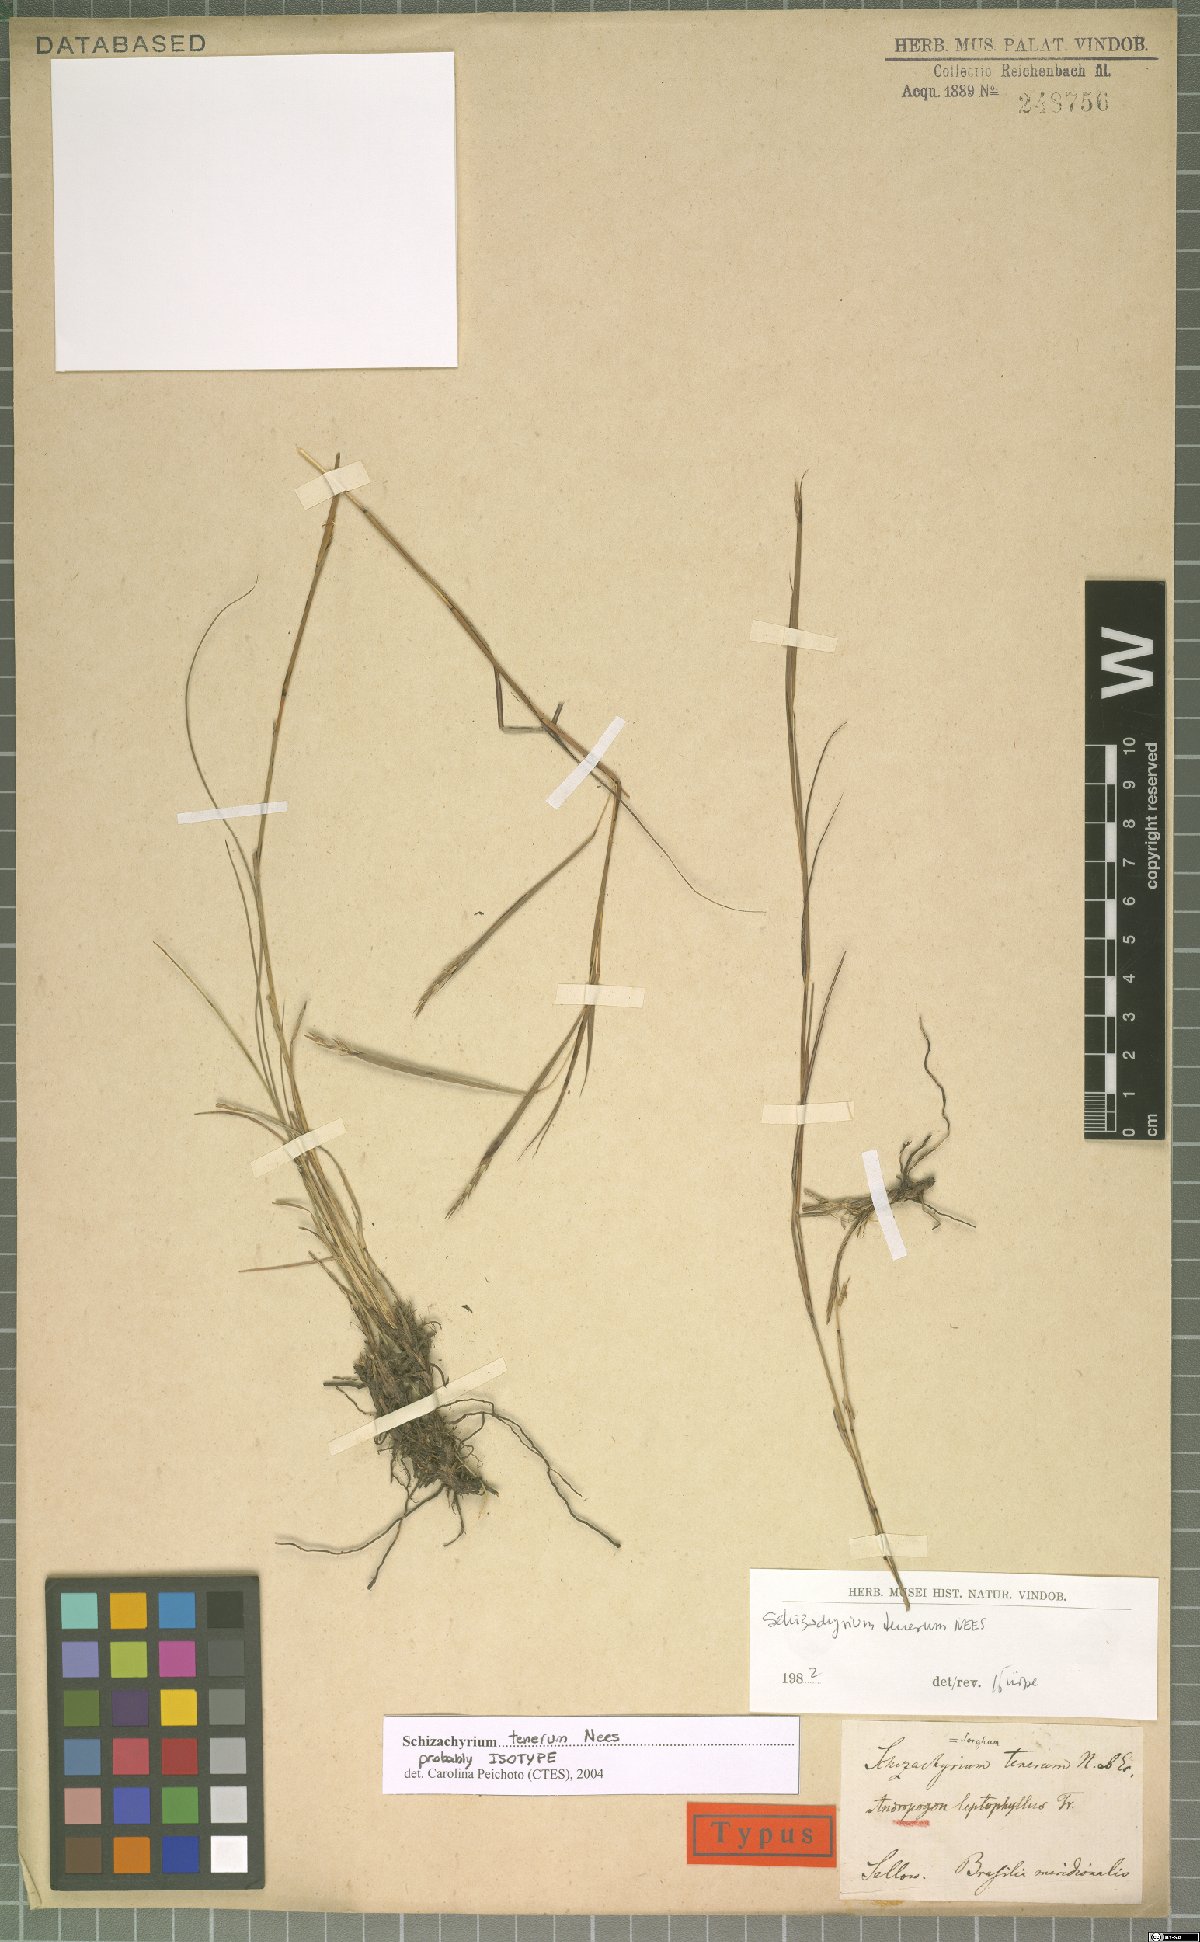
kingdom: Plantae
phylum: Tracheophyta
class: Liliopsida
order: Poales
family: Poaceae
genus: Andropogon
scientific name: Andropogon tener
